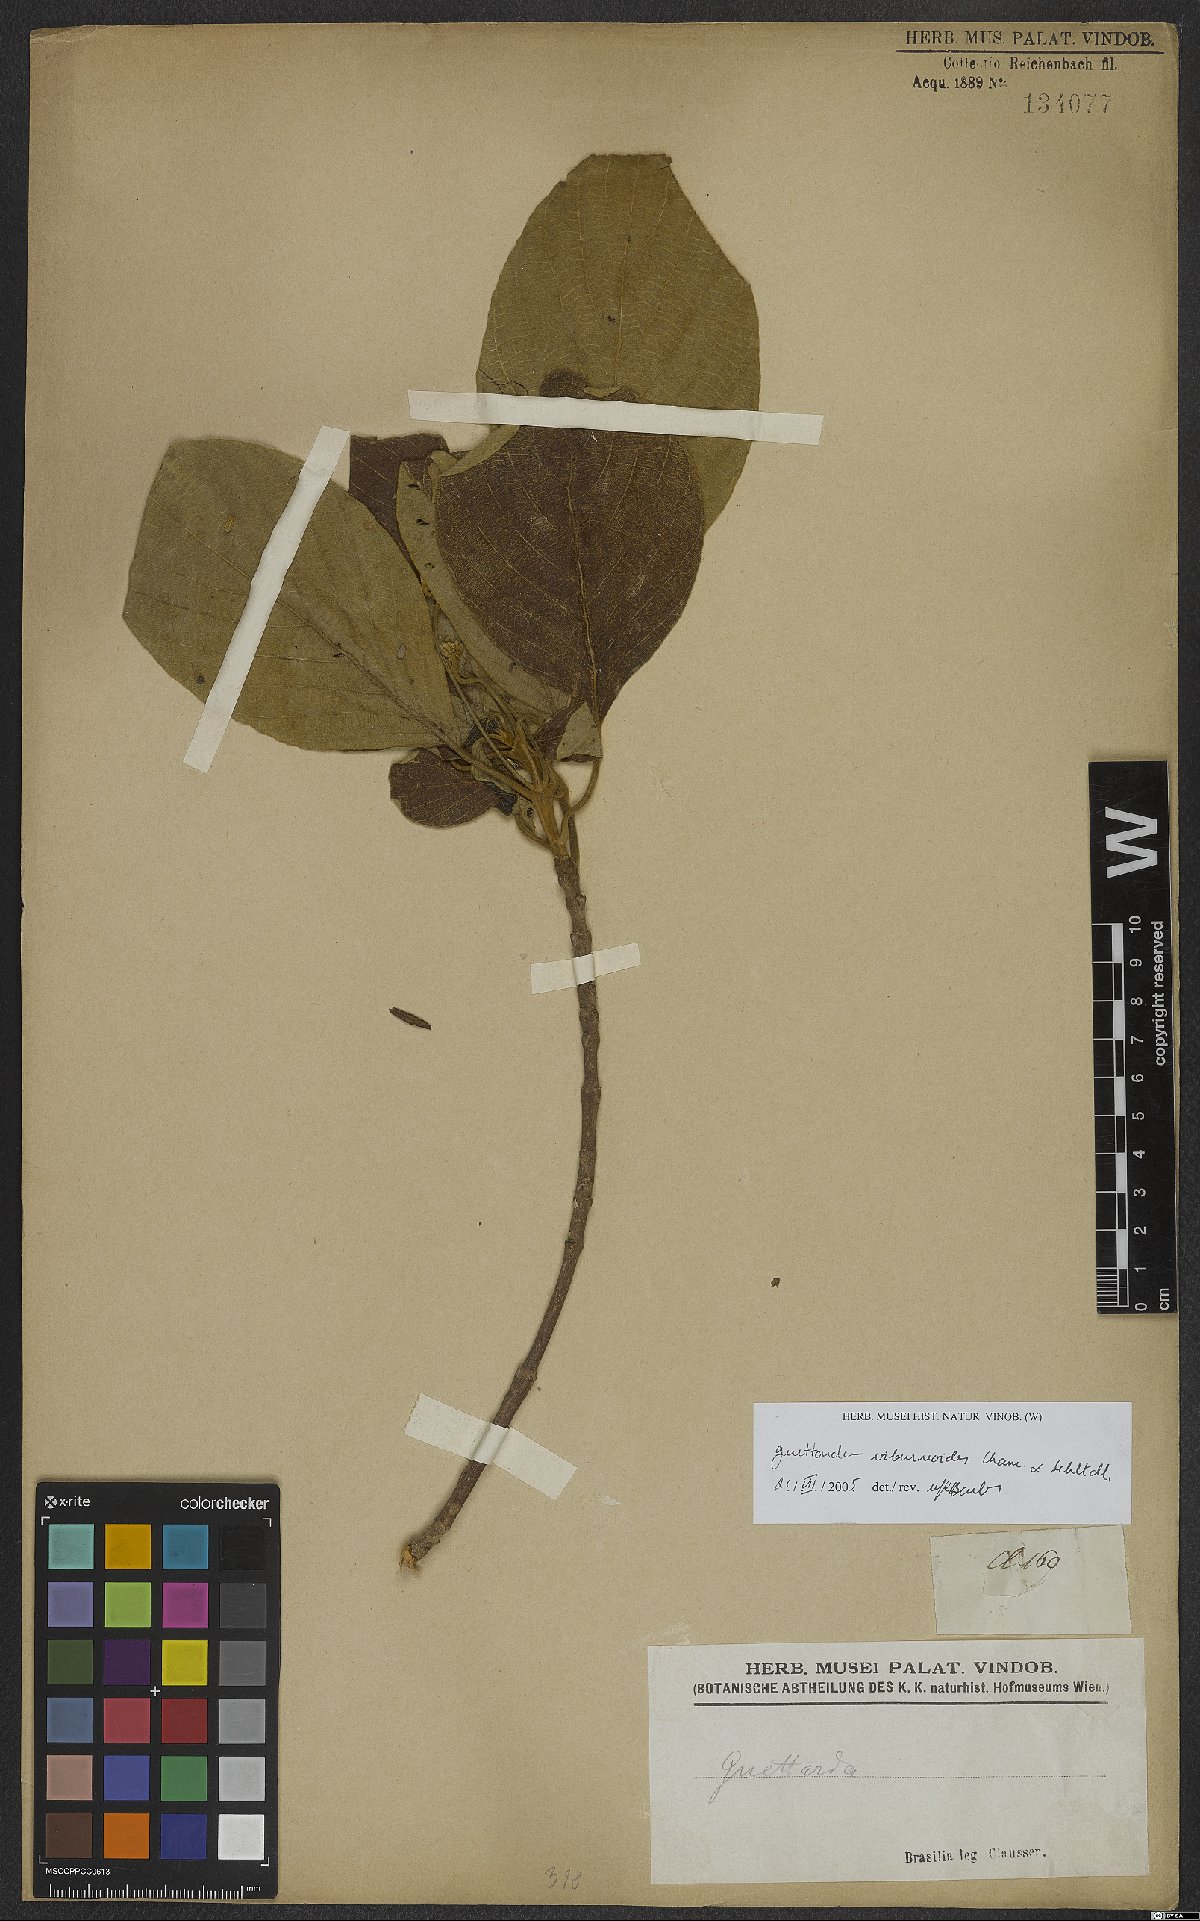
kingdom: Plantae
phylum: Tracheophyta
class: Magnoliopsida
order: Gentianales
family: Rubiaceae
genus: Guettarda
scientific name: Guettarda viburnoides
